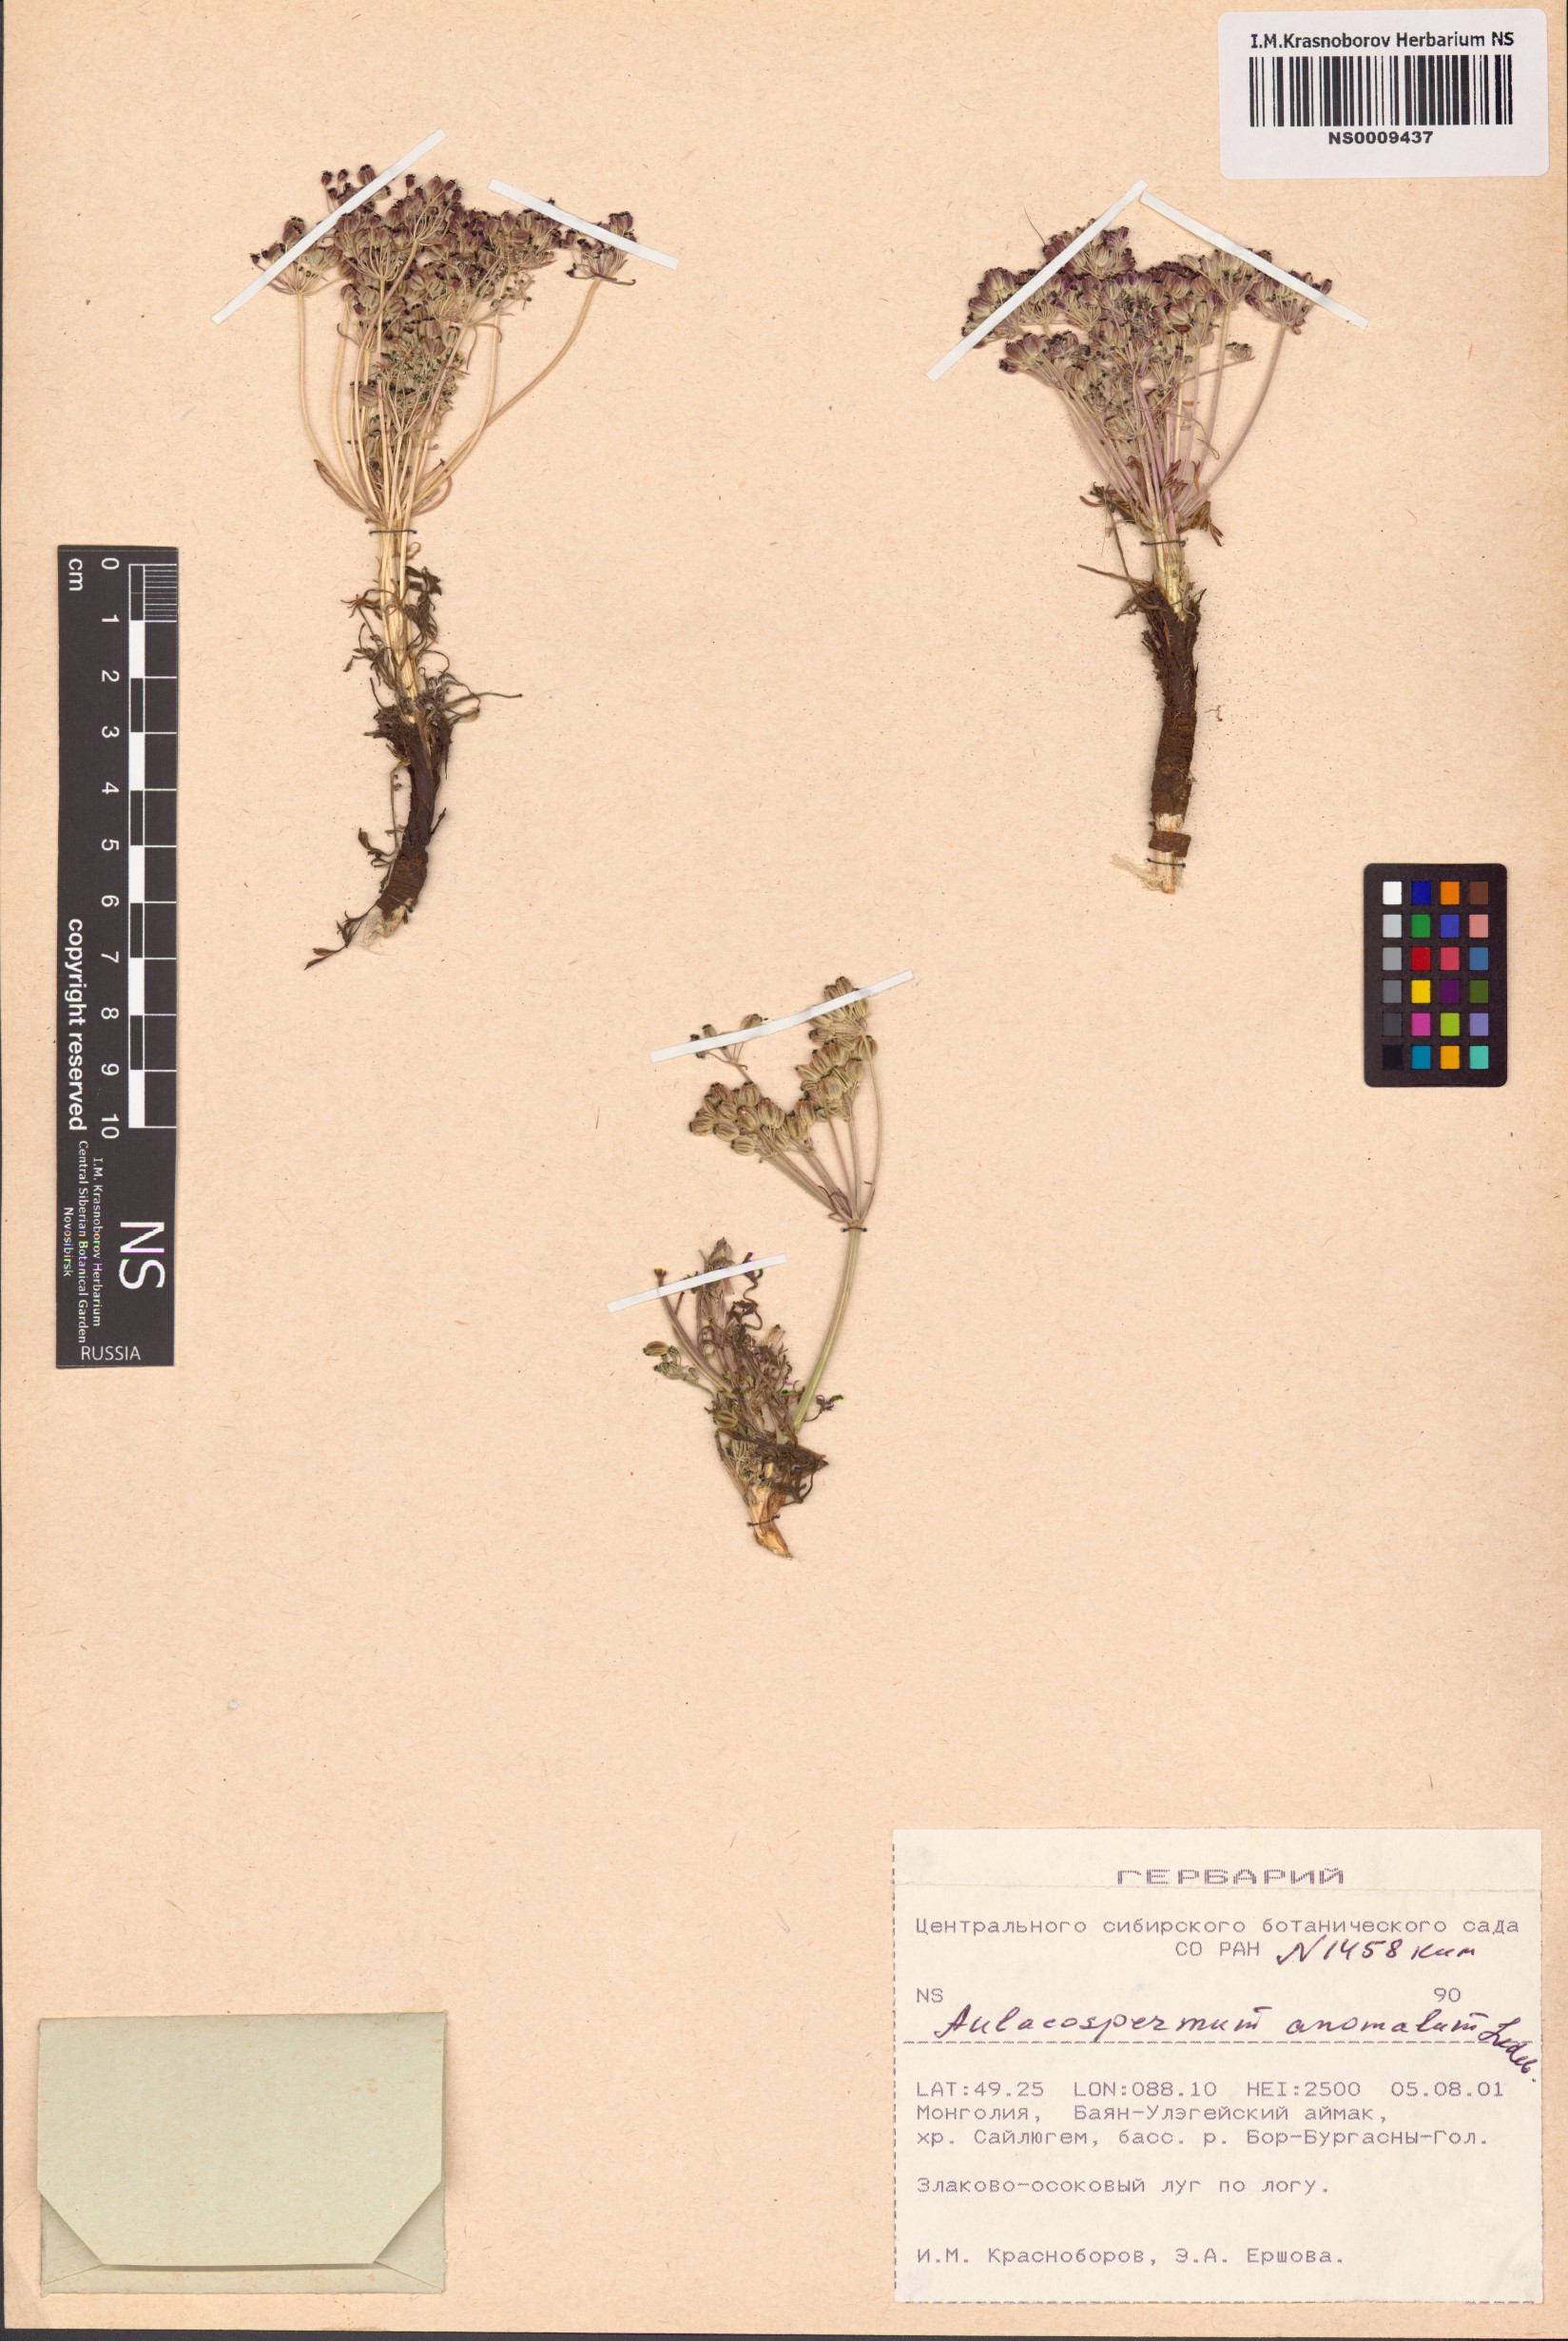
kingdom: Plantae
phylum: Tracheophyta
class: Magnoliopsida
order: Apiales
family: Apiaceae
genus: Aulacospermum
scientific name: Aulacospermum anomalum
